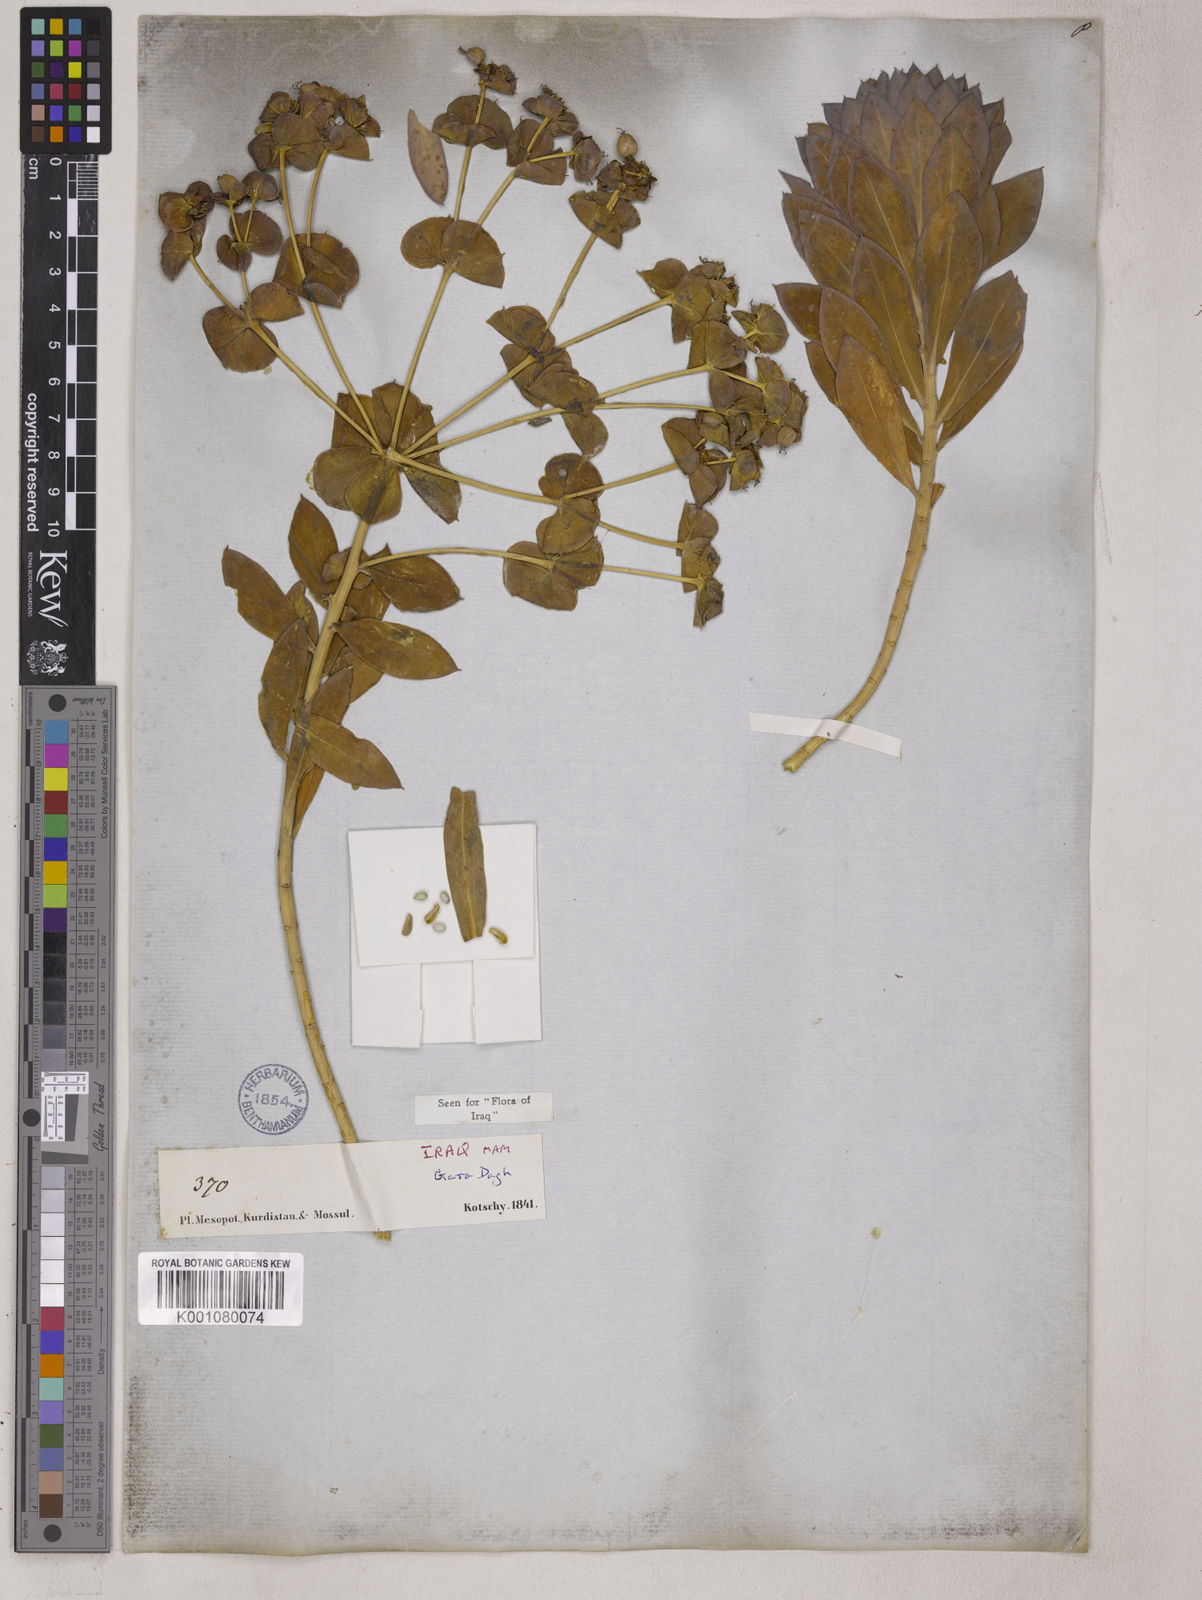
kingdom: Plantae
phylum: Tracheophyta
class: Magnoliopsida
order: Malpighiales
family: Euphorbiaceae
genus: Euphorbia
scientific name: Euphorbia macroclada
